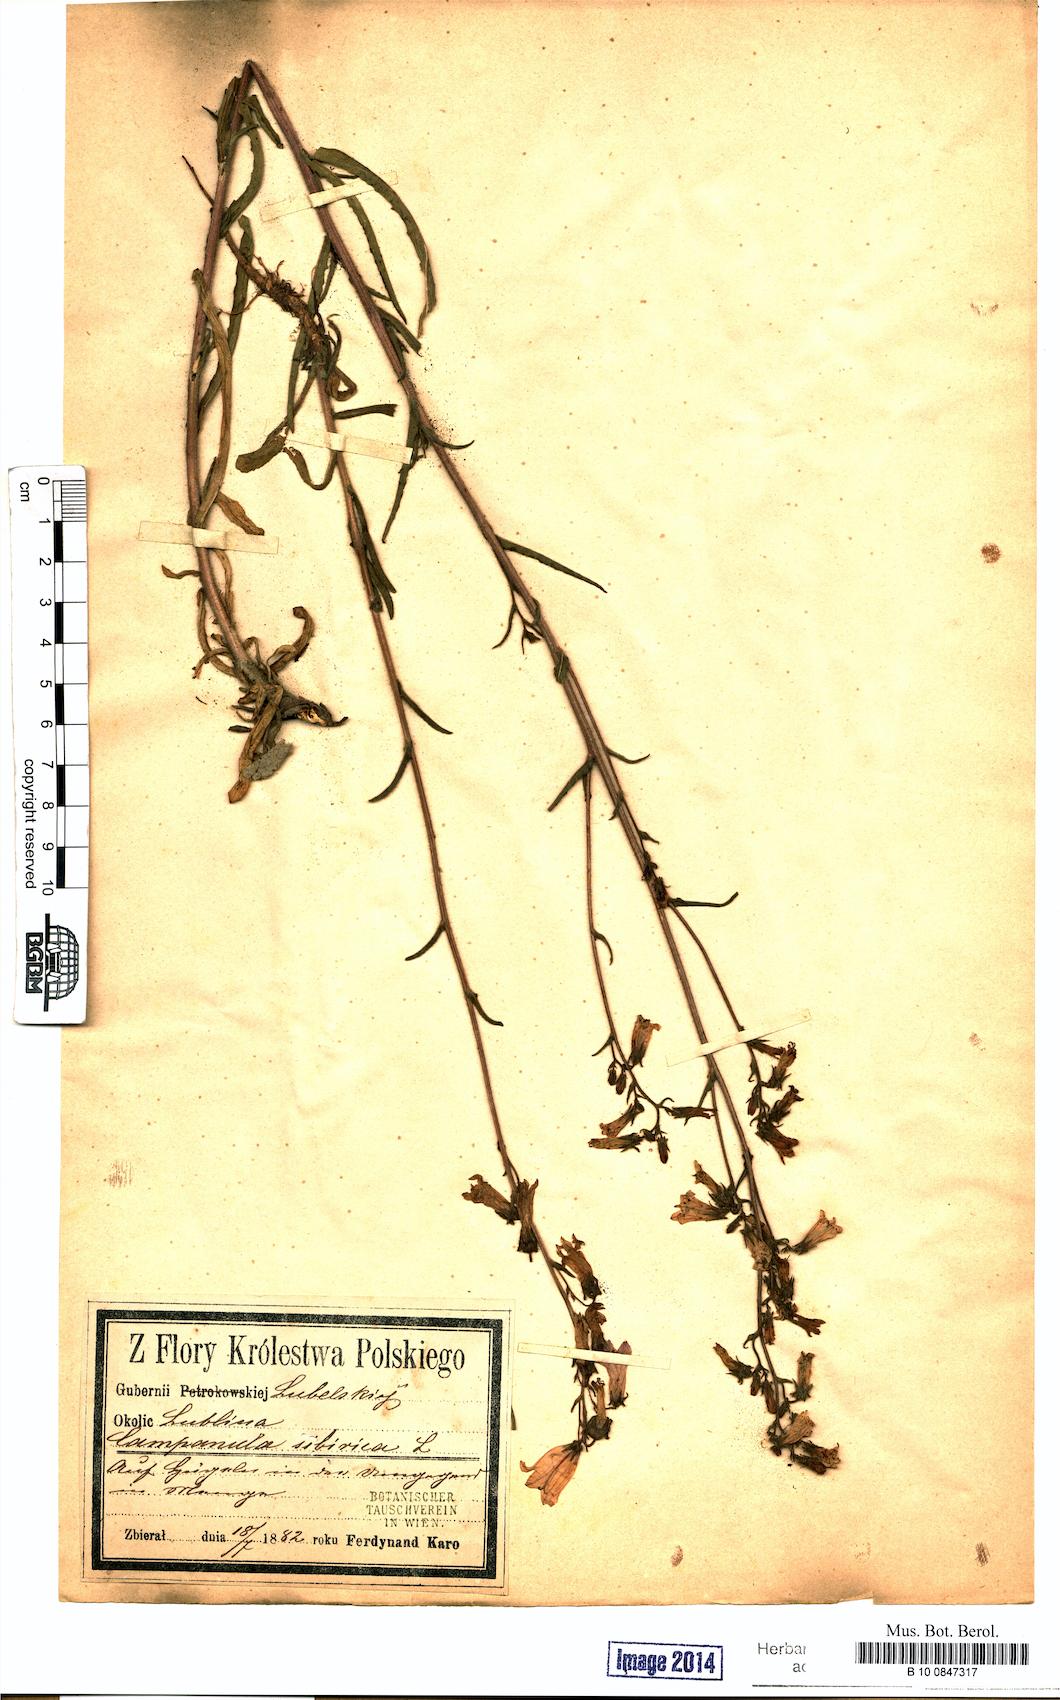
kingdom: Plantae
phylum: Tracheophyta
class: Magnoliopsida
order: Asterales
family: Campanulaceae
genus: Campanula
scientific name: Campanula sibirica
